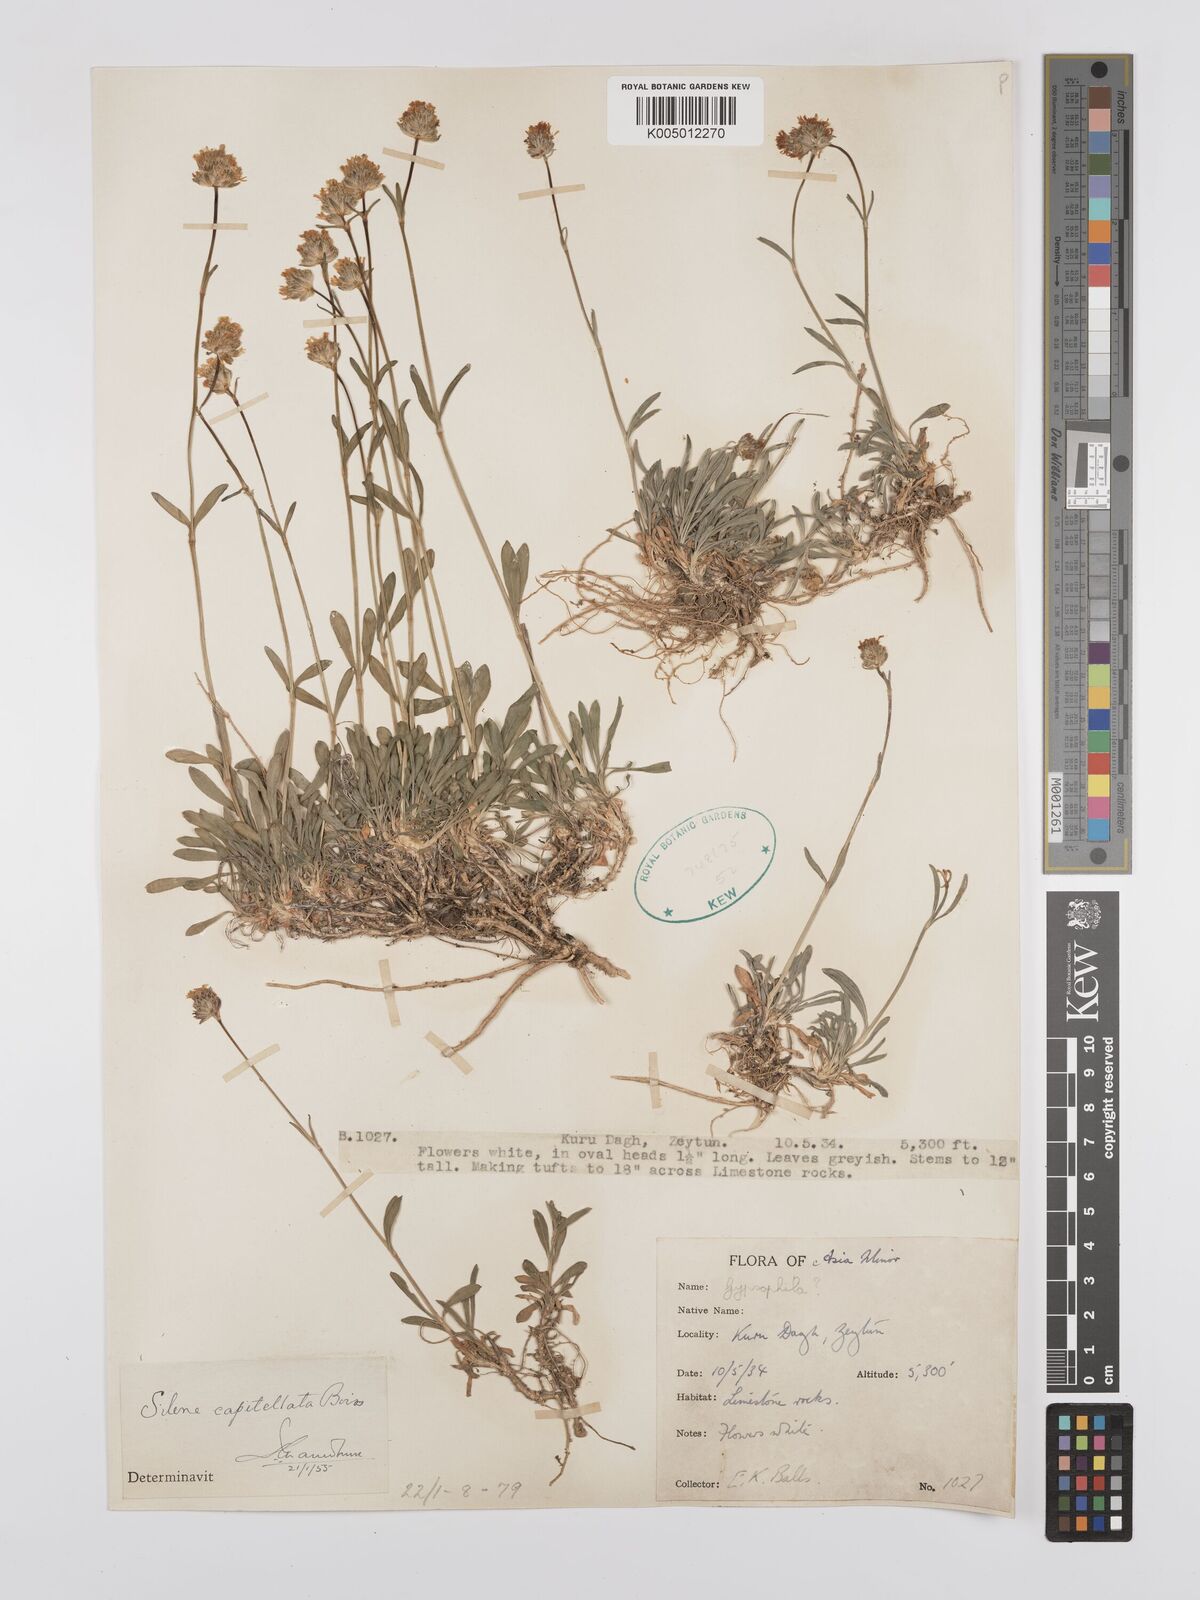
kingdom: Plantae
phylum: Tracheophyta
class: Magnoliopsida
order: Caryophyllales
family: Caryophyllaceae
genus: Silene
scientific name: Silene capitellata
